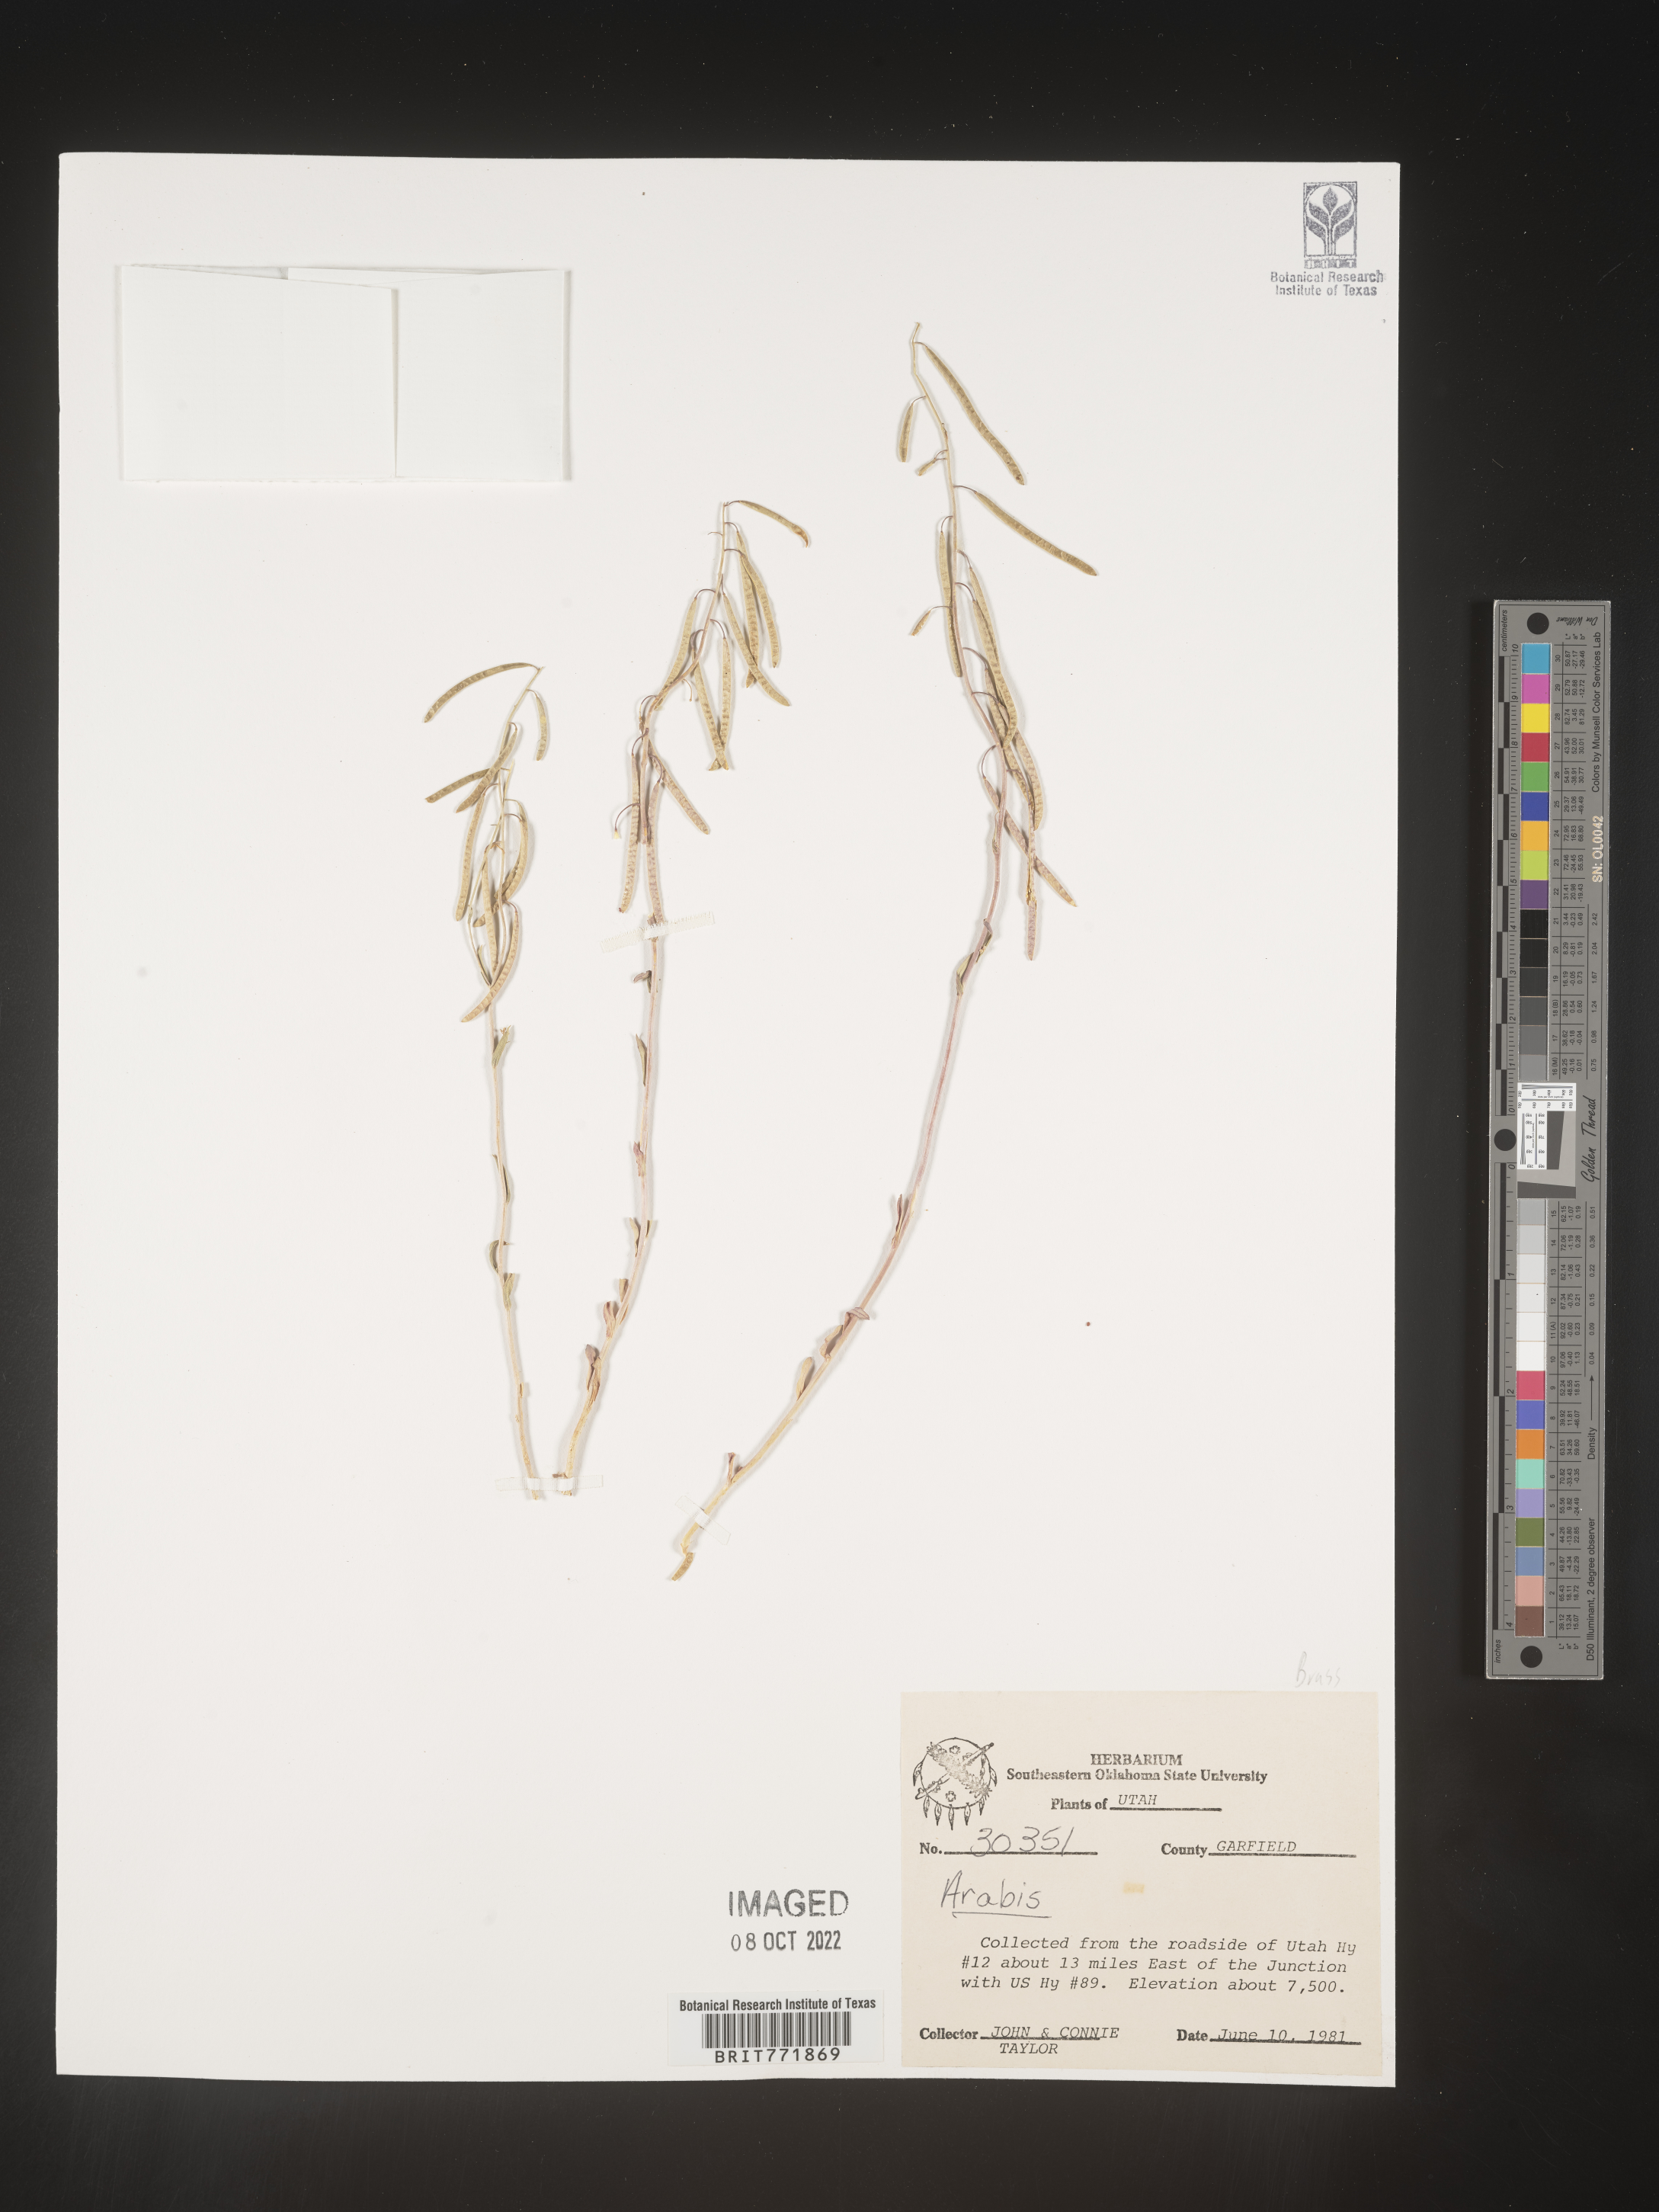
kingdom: Plantae
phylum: Tracheophyta
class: Magnoliopsida
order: Brassicales
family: Brassicaceae
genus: Arabis
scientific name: Arabis
